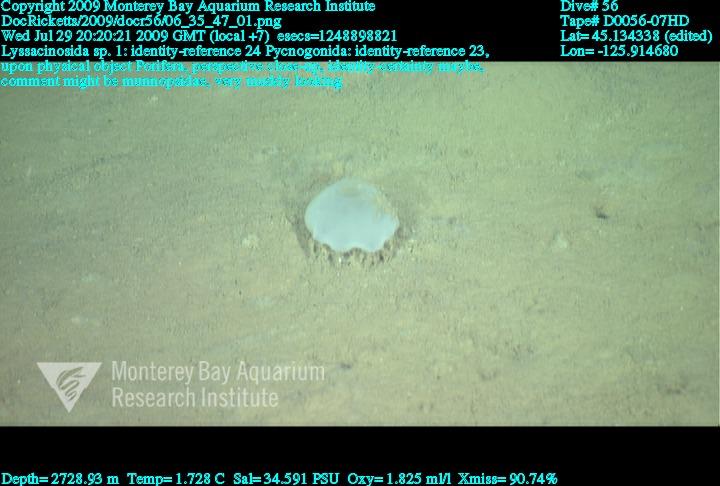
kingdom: Animalia
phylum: Porifera
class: Hexactinellida
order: Lyssacinosida
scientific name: Lyssacinosida
